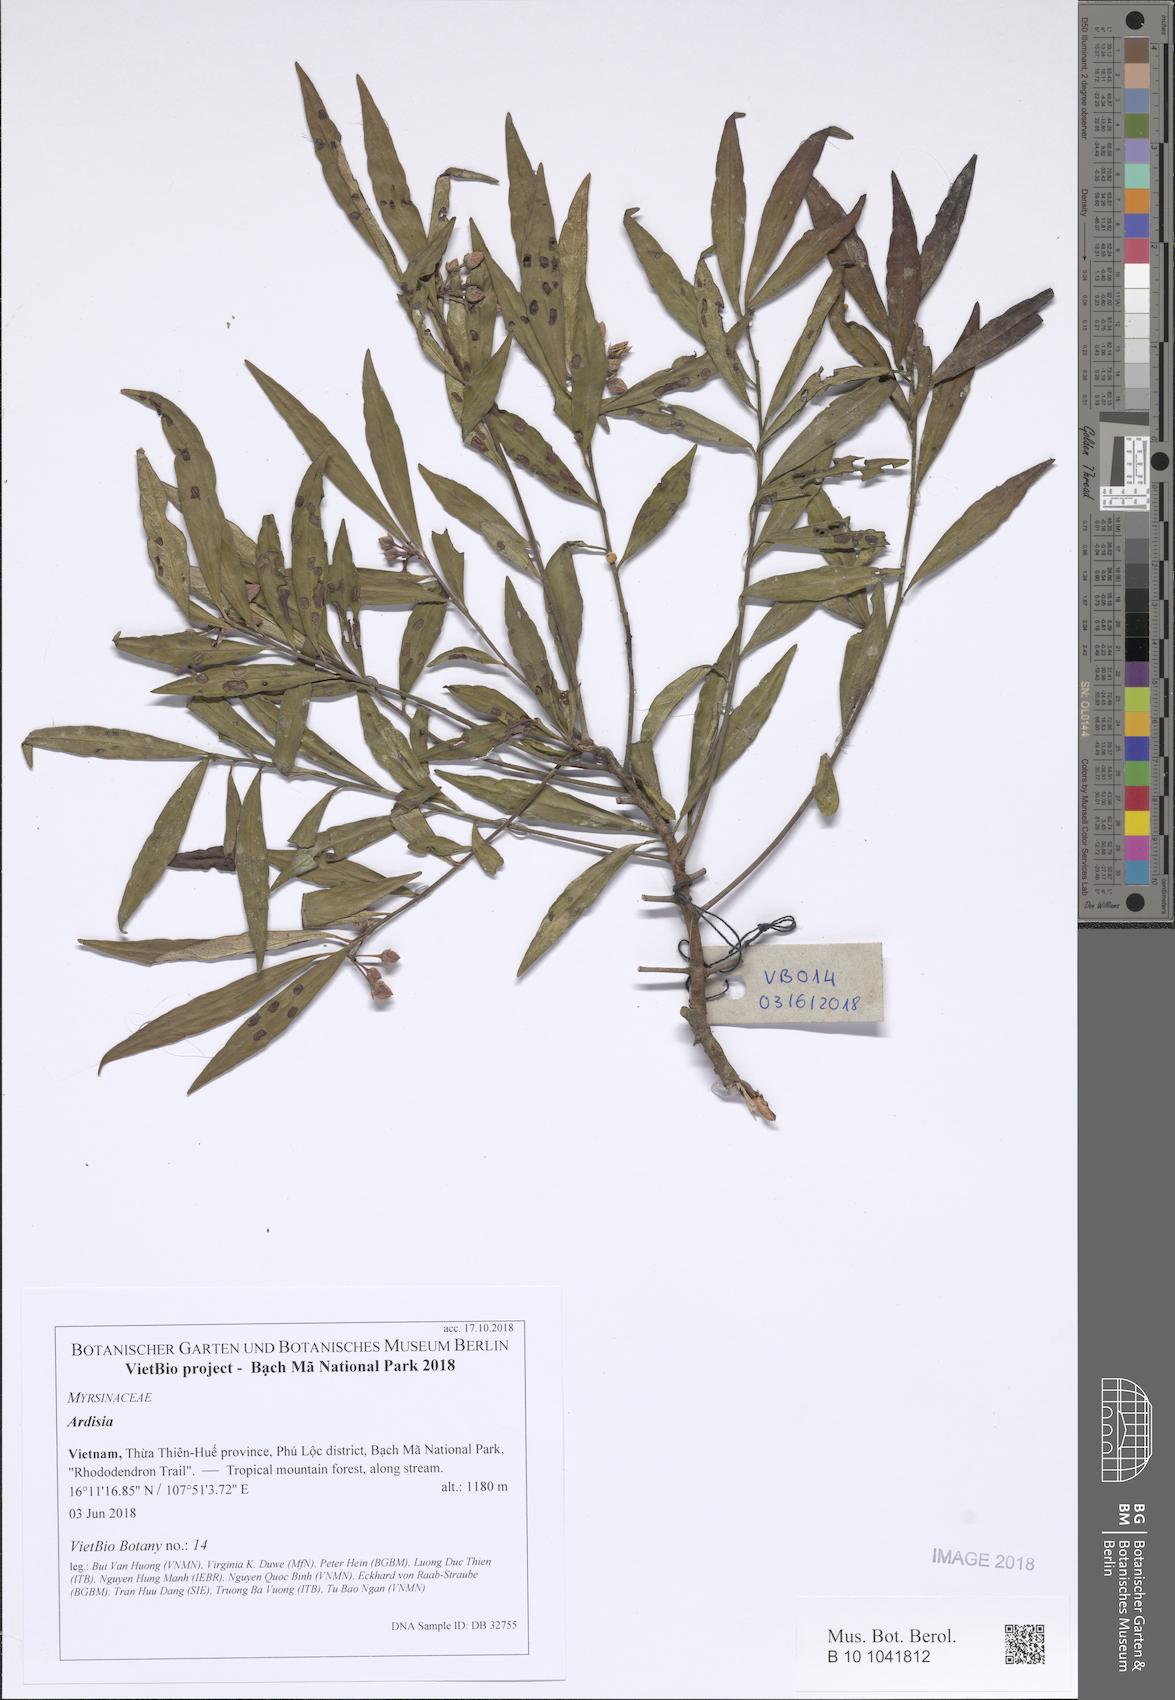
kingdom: Plantae
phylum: Tracheophyta
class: Magnoliopsida
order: Ericales
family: Primulaceae
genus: Ardisia
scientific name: Ardisia annamensis
